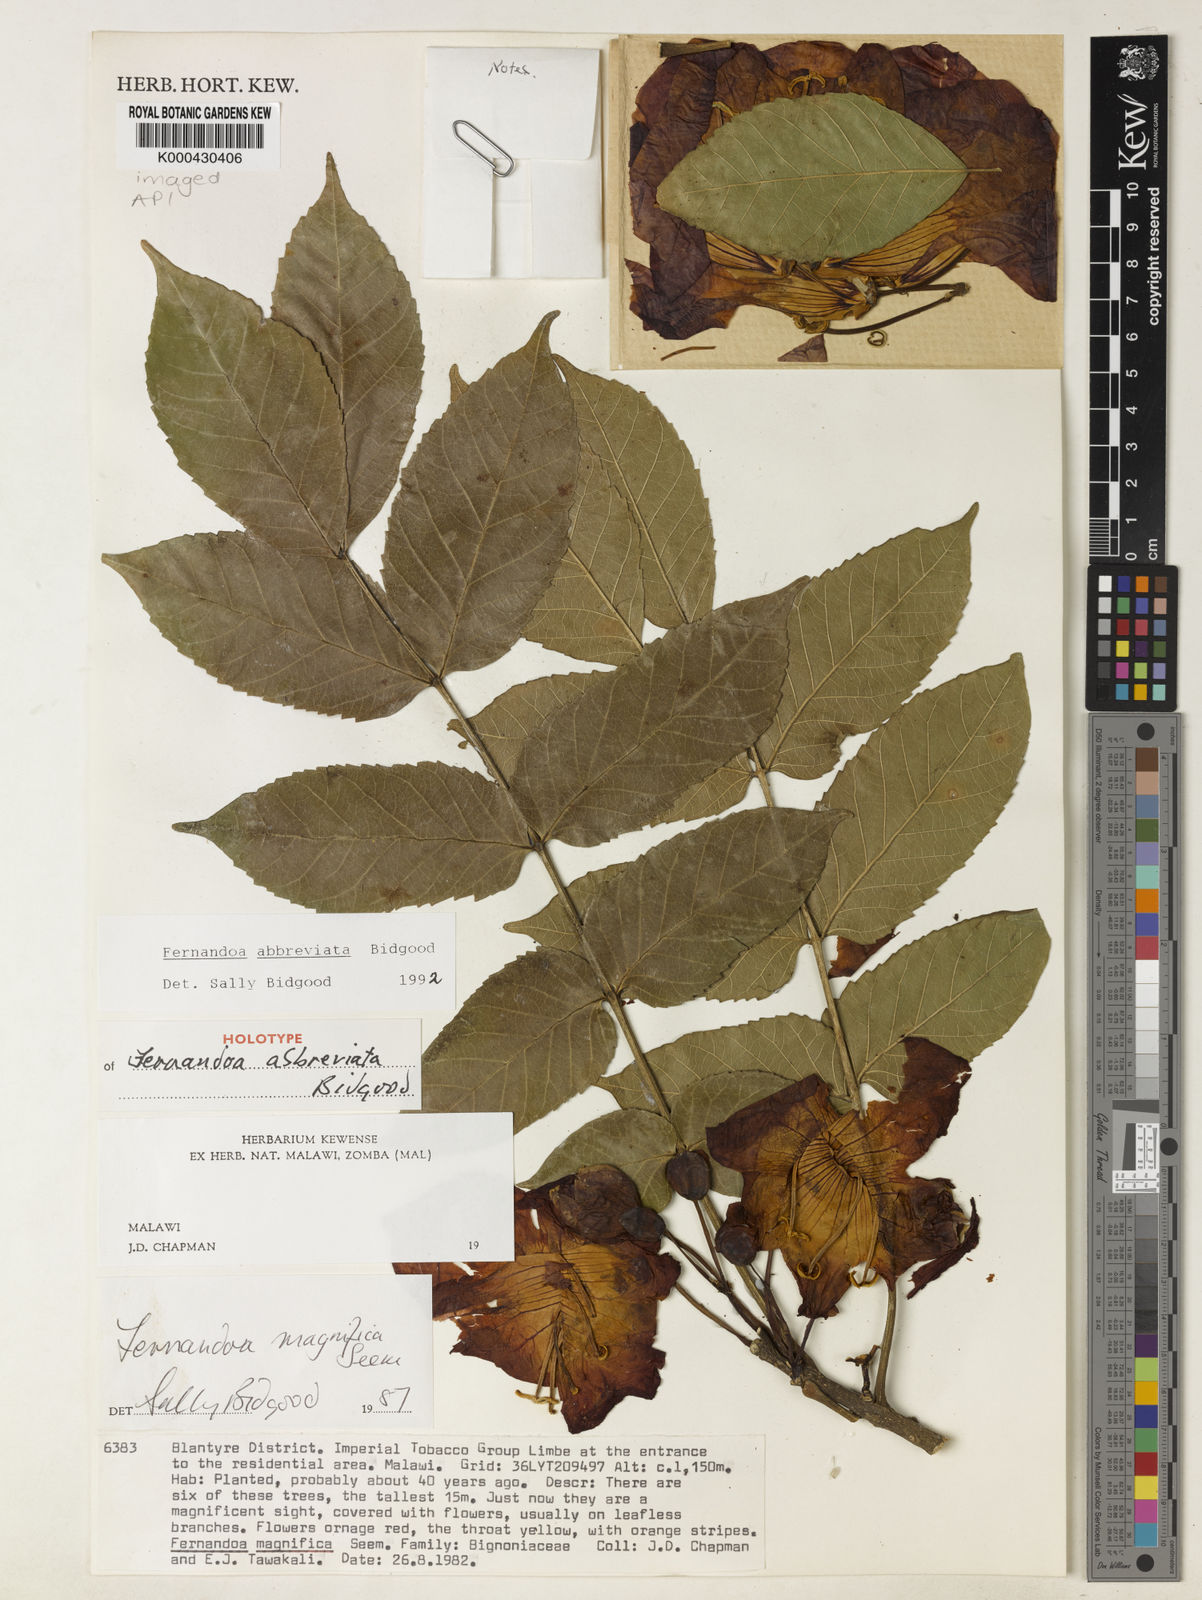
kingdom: Plantae
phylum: Tracheophyta
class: Magnoliopsida
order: Lamiales
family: Bignoniaceae
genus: Fernandoa
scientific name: Fernandoa abbreviata
